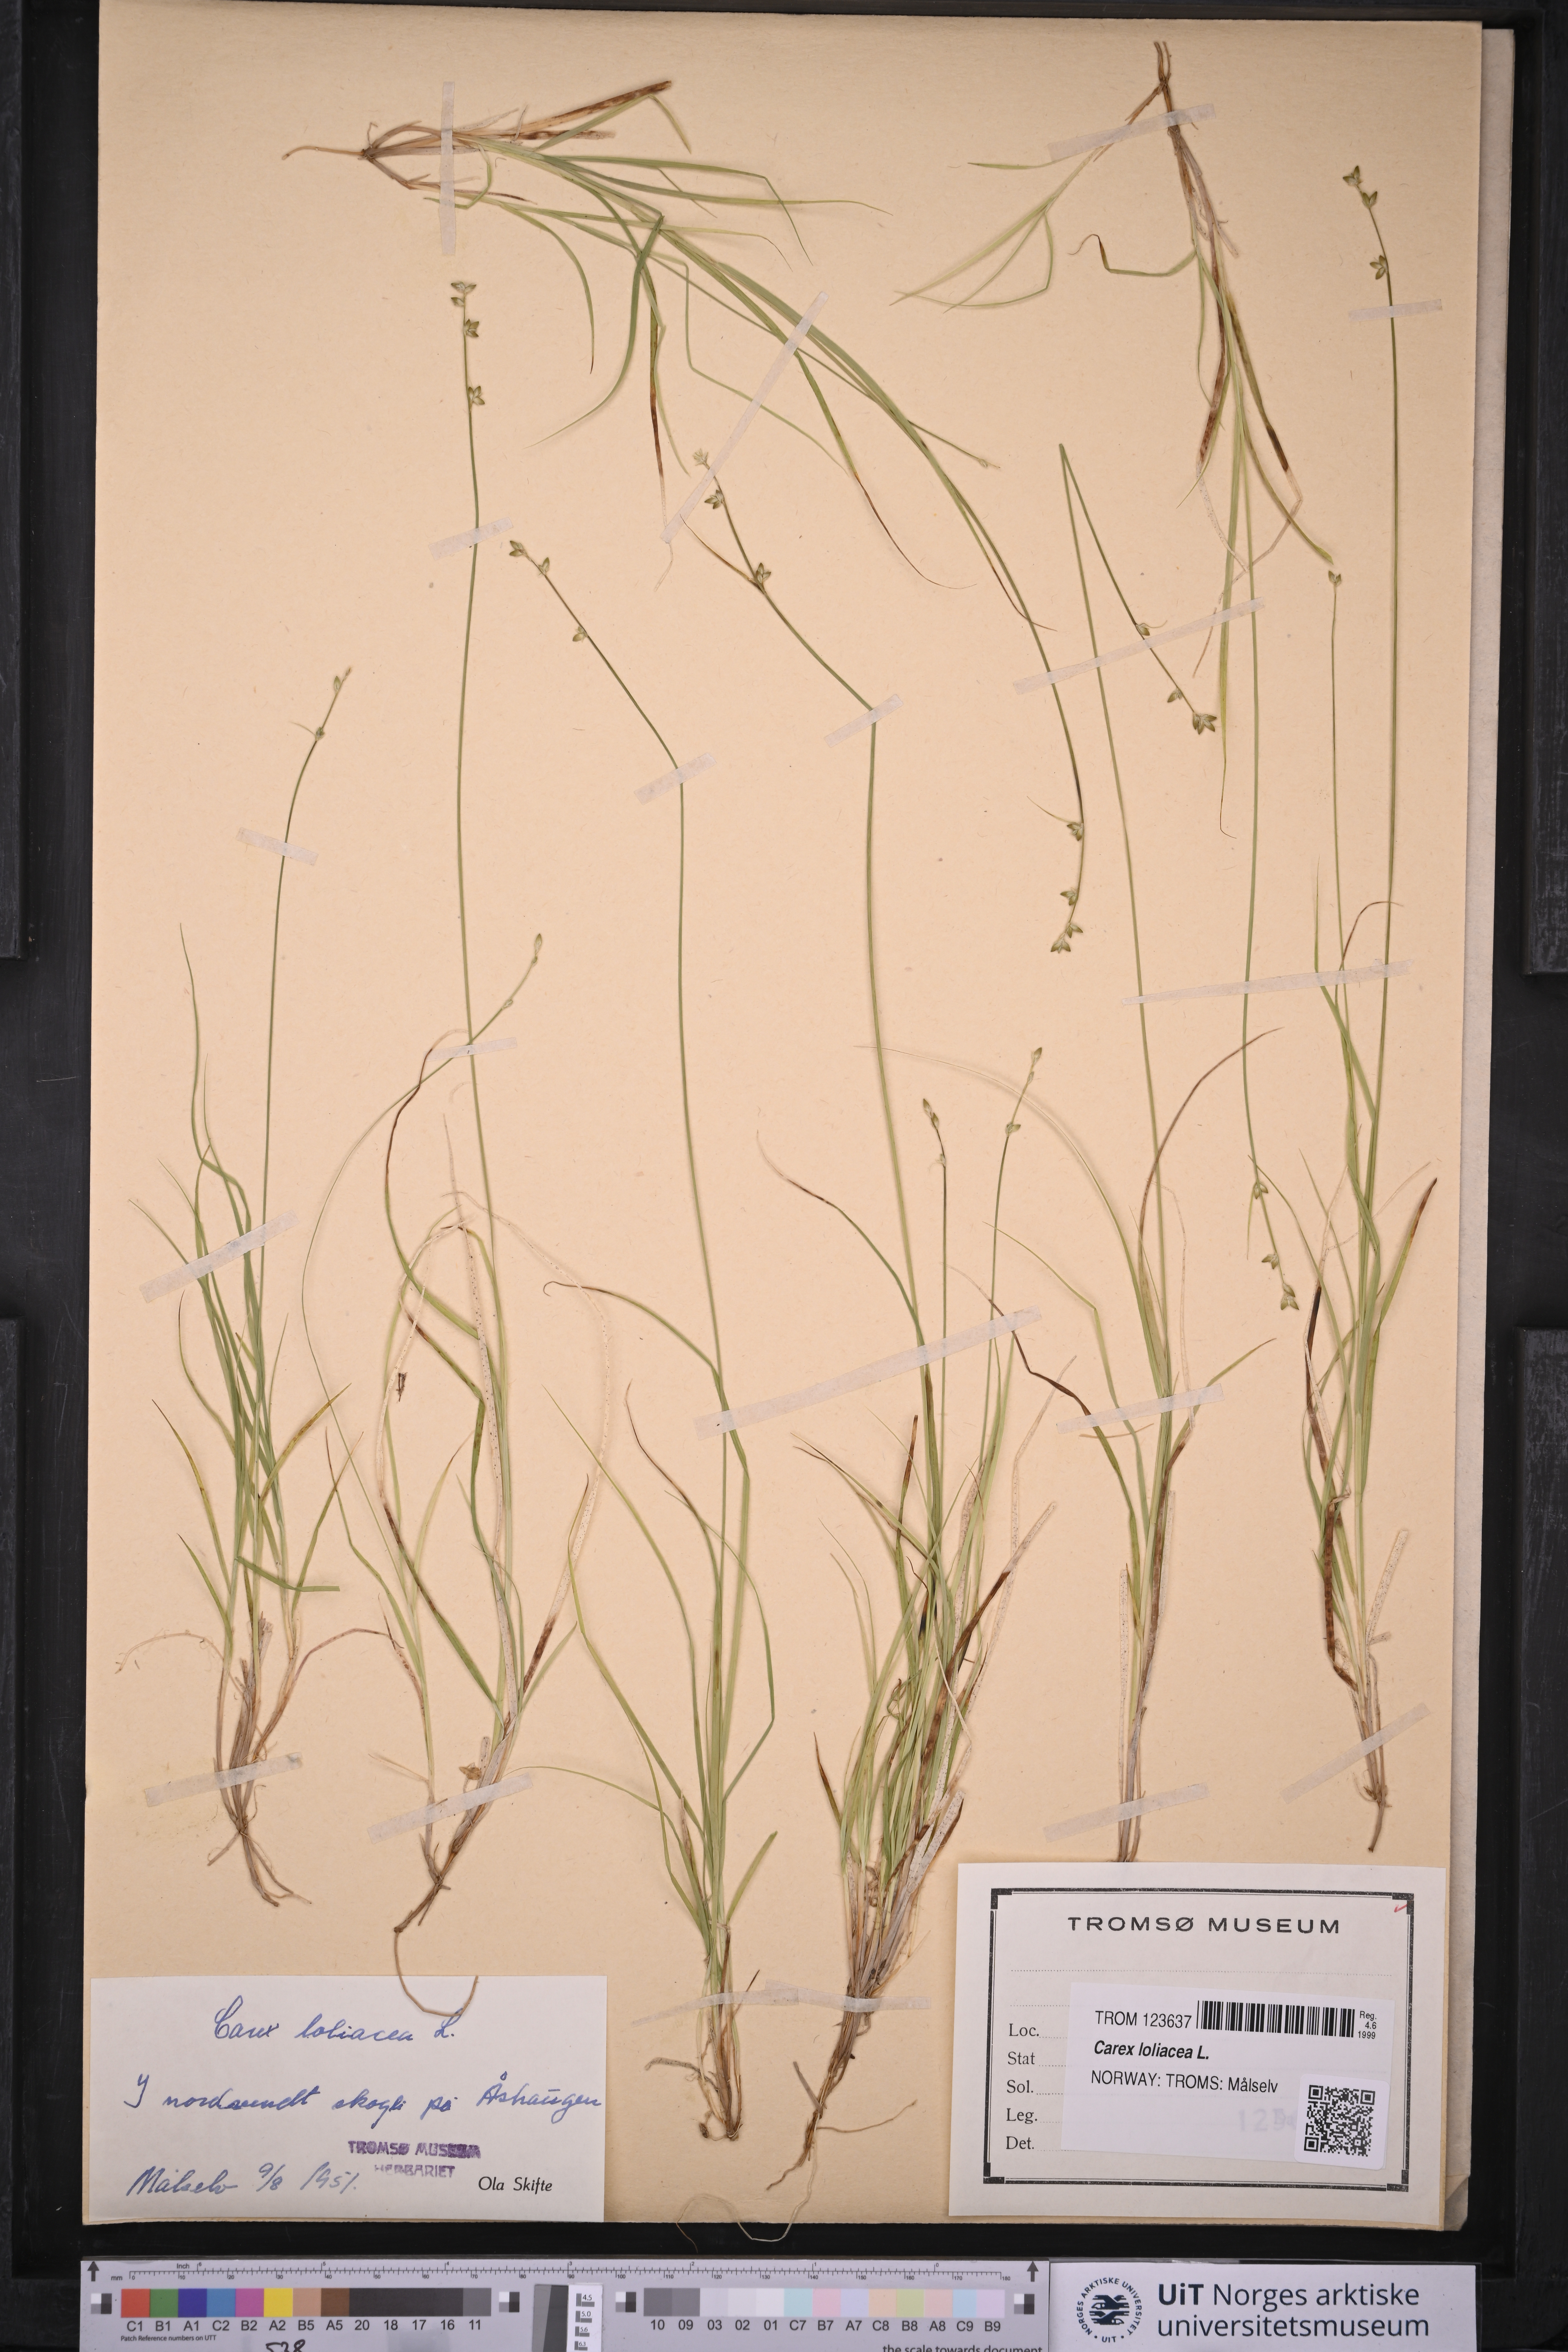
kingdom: Plantae
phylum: Tracheophyta
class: Liliopsida
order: Poales
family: Cyperaceae
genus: Carex
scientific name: Carex loliacea
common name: Ryegrass sedge
